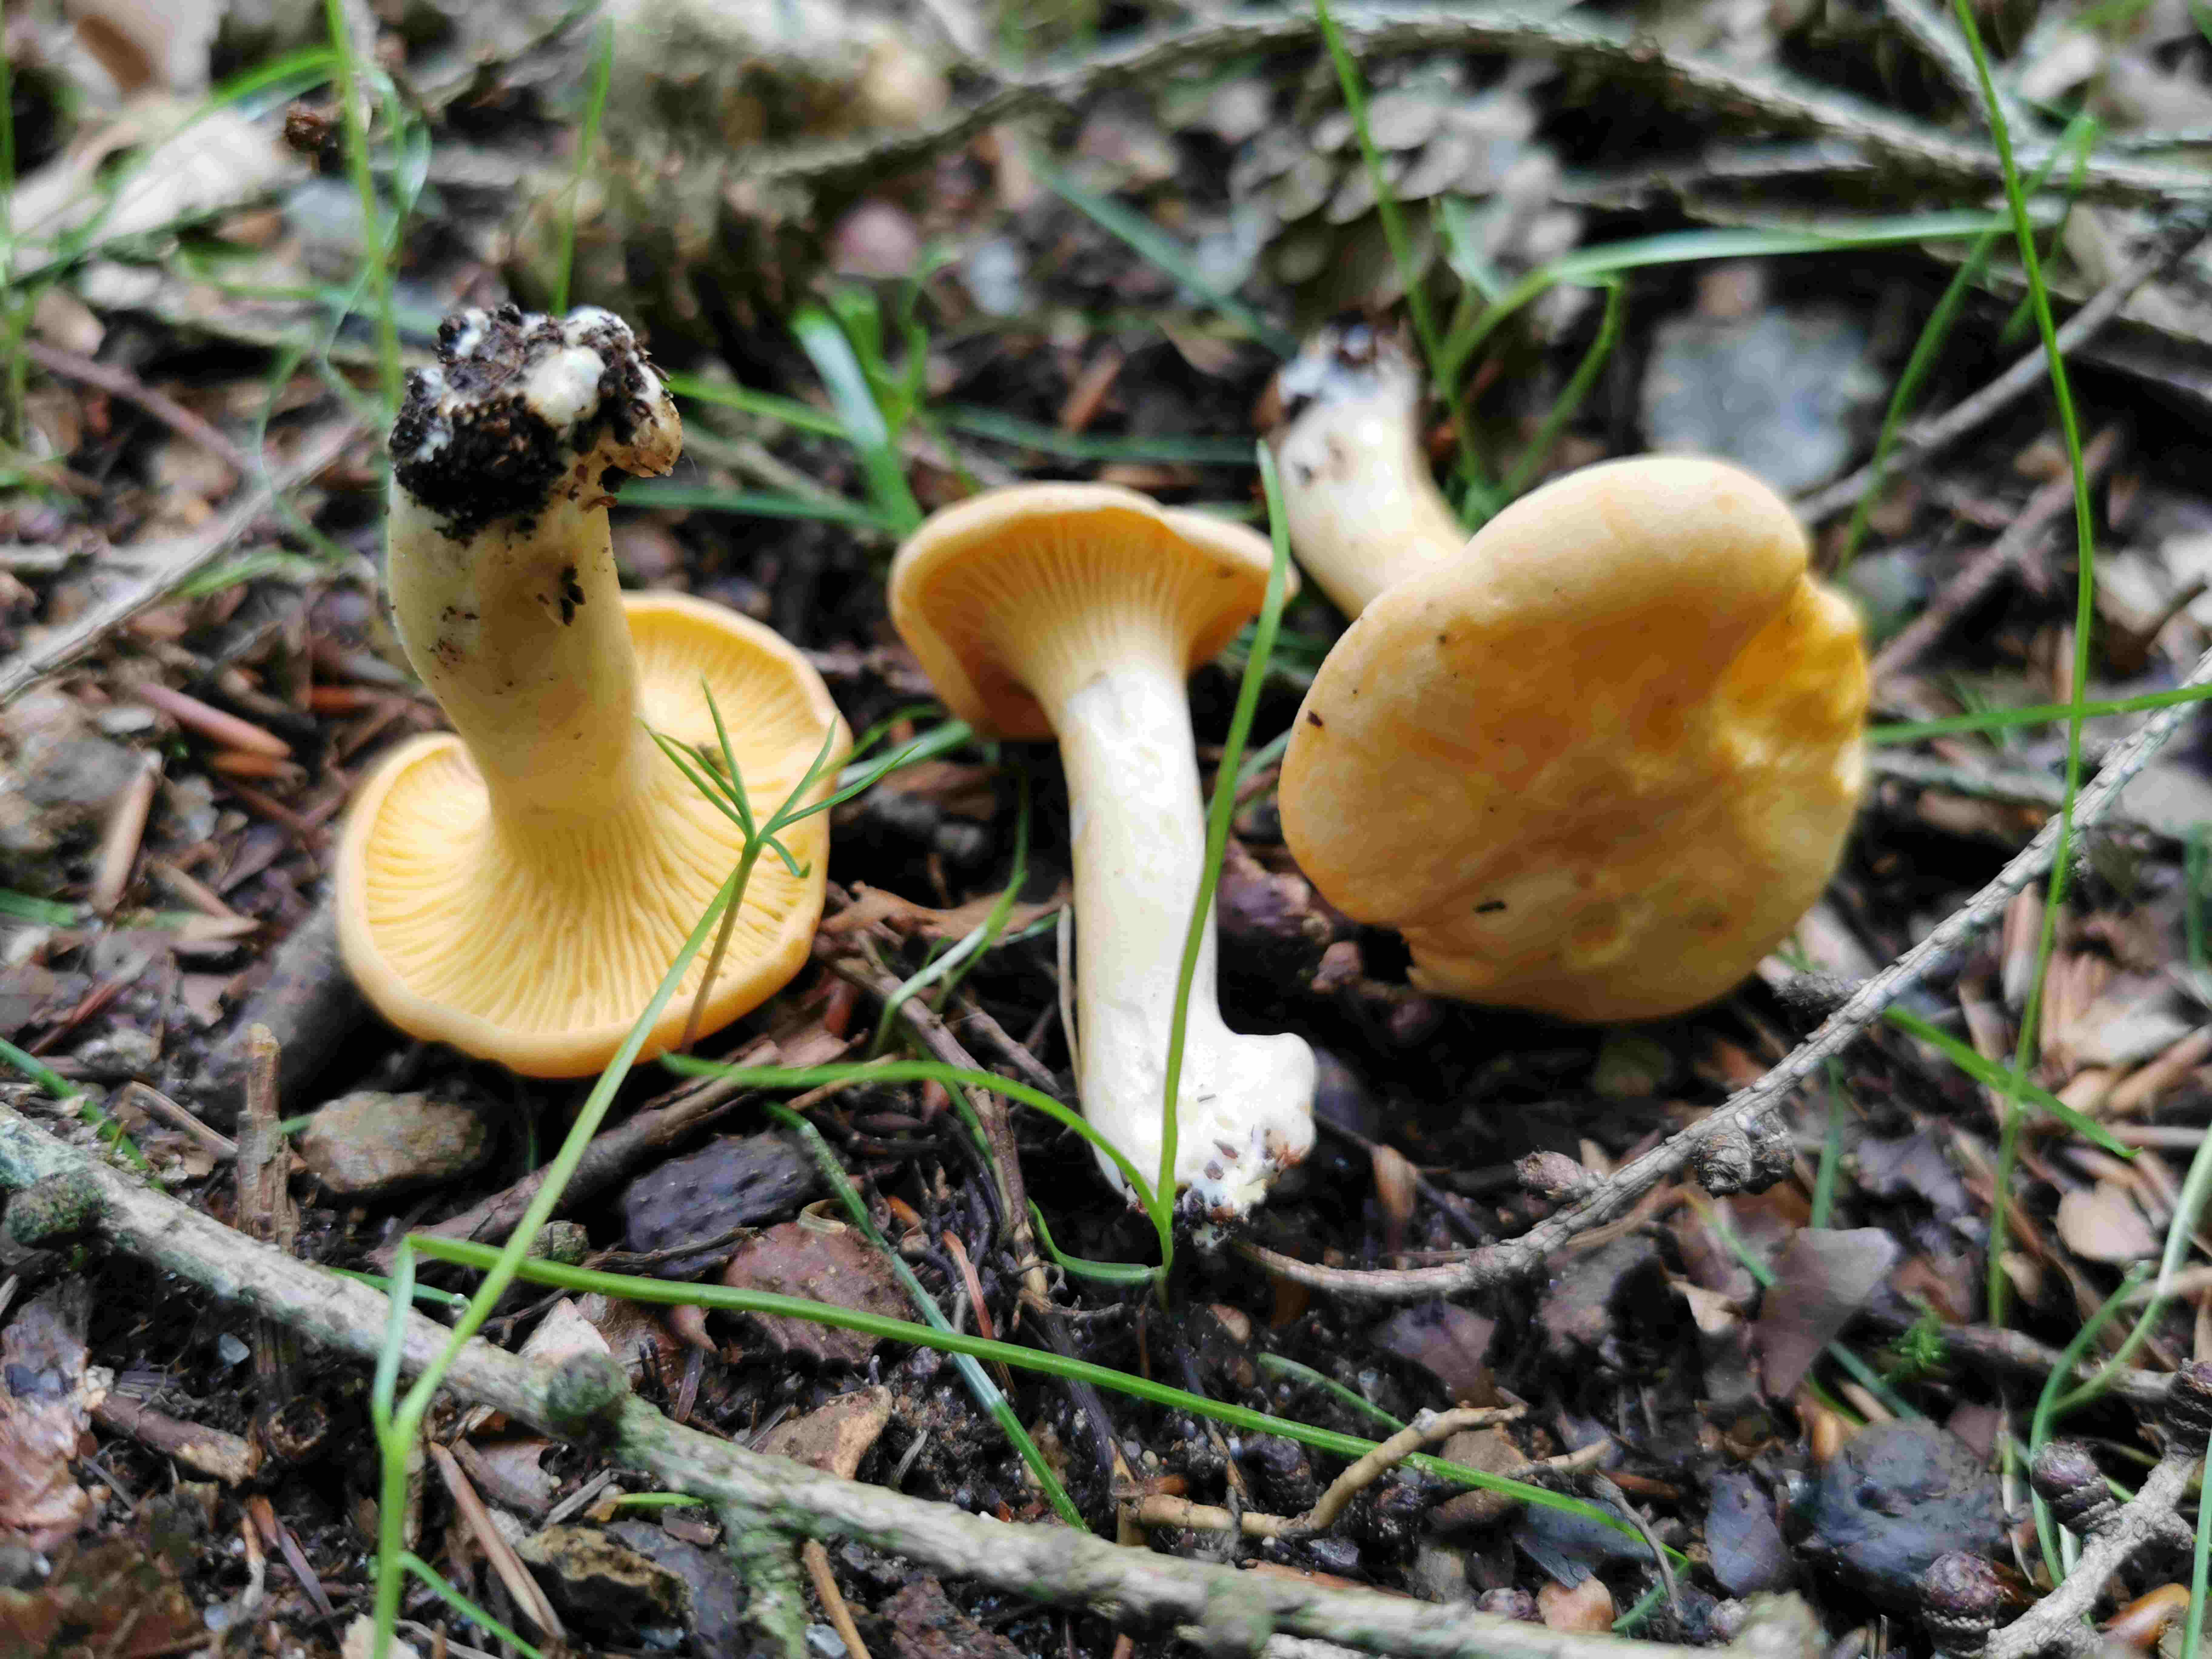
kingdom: Fungi
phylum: Basidiomycota
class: Agaricomycetes
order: Cantharellales
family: Hydnaceae
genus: Cantharellus
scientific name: Cantharellus pallens
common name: bleg kantarel
